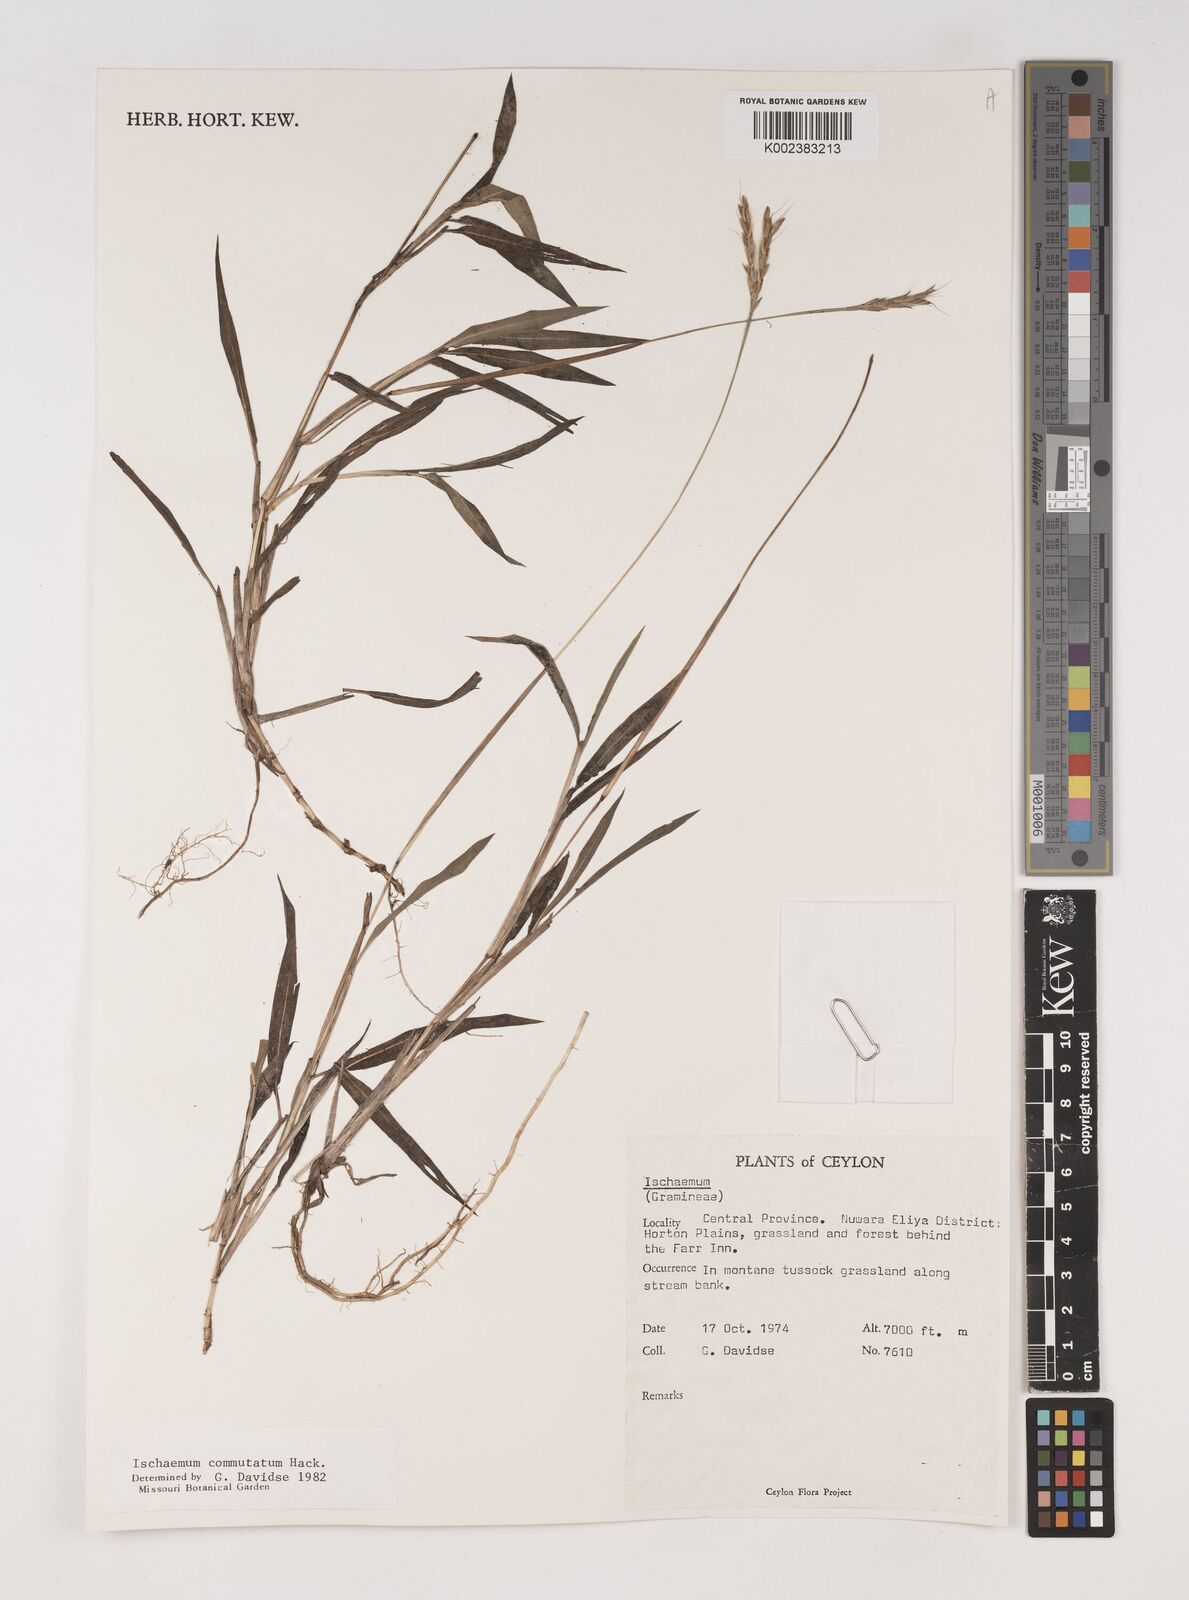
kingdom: Plantae
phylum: Tracheophyta
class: Liliopsida
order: Poales
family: Poaceae
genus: Ischaemum
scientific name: Ischaemum commutatum
